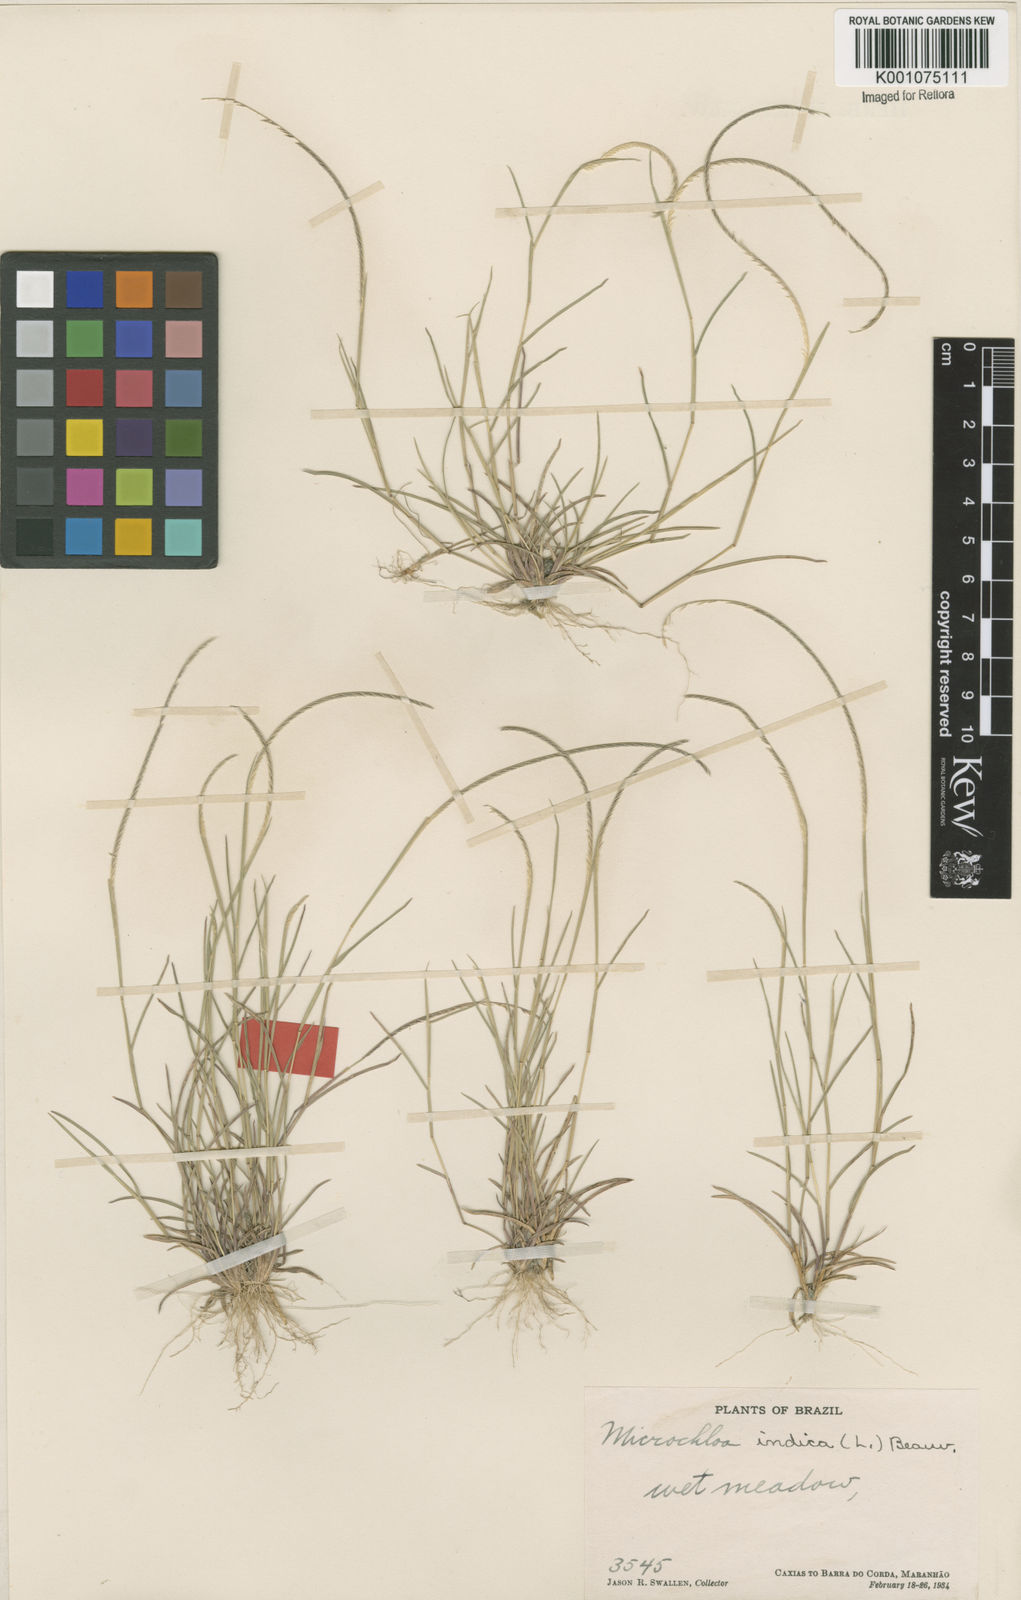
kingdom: Plantae
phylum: Tracheophyta
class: Liliopsida
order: Poales
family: Poaceae
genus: Microchloa
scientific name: Microchloa indica
